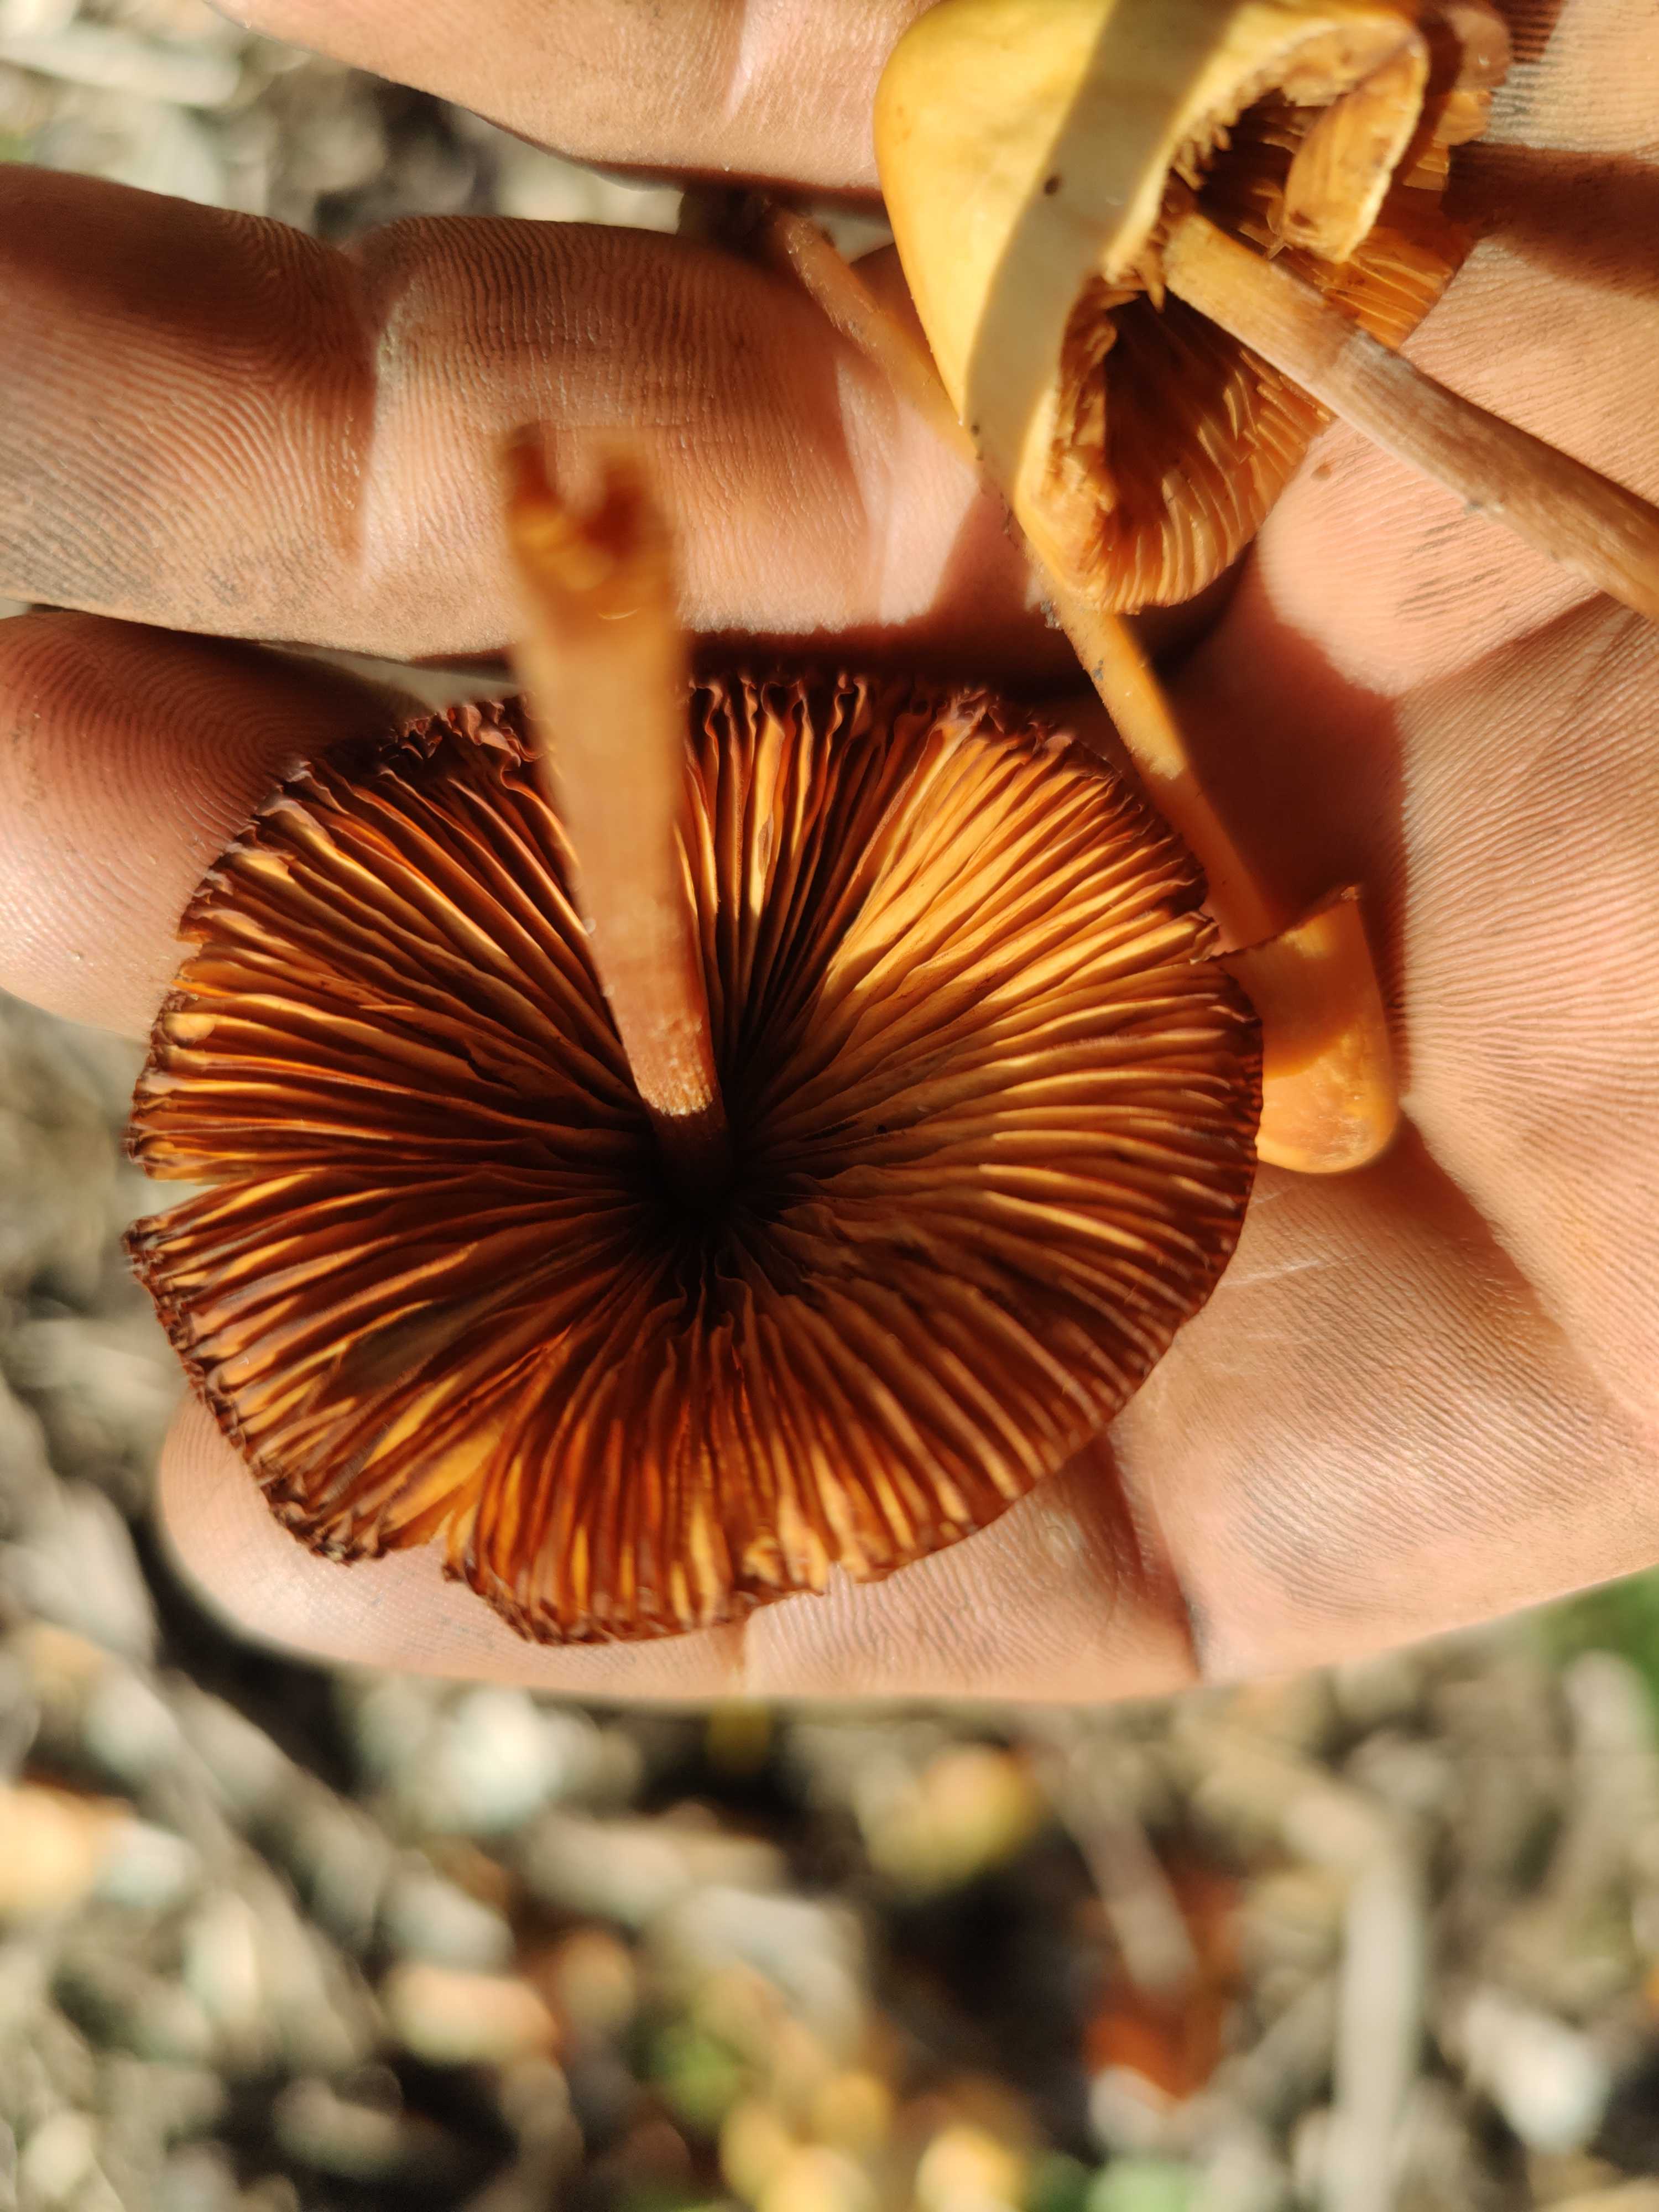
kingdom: Fungi
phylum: Basidiomycota
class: Agaricomycetes
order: Agaricales
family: Bolbitiaceae
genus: Conocybe
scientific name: Conocybe
